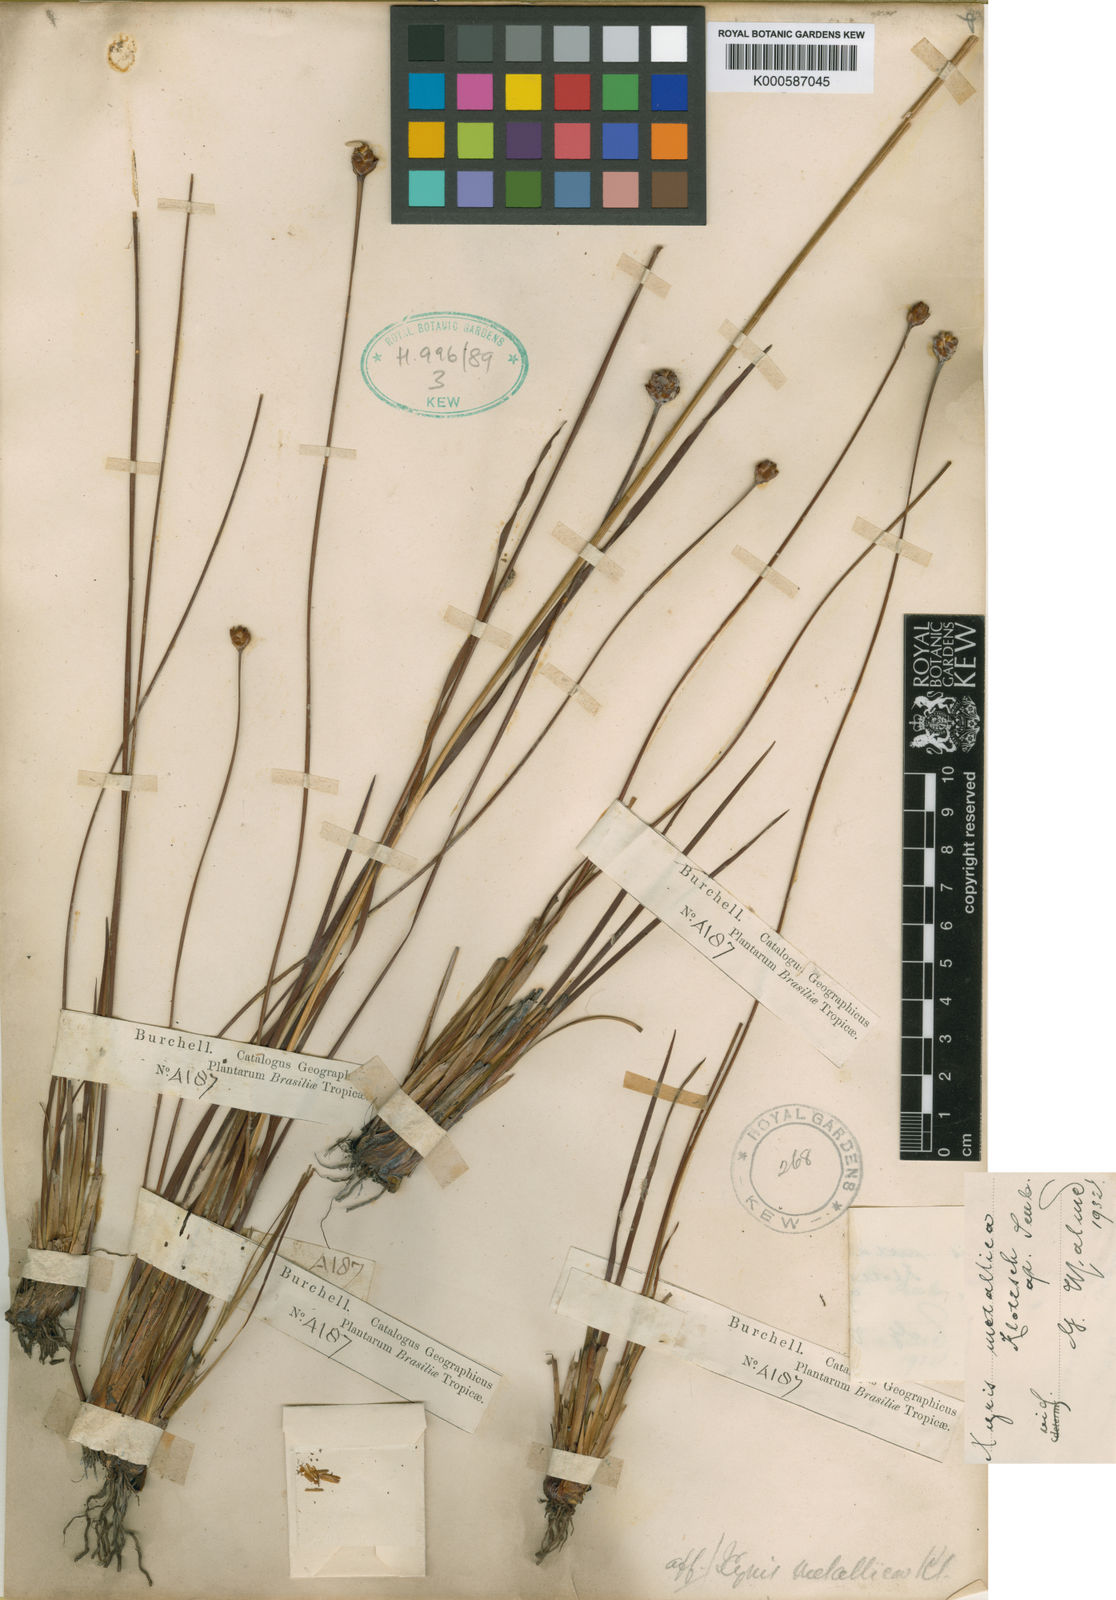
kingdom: Plantae
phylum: Tracheophyta
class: Liliopsida
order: Poales
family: Xyridaceae
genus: Xyris
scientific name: Xyris metallica
